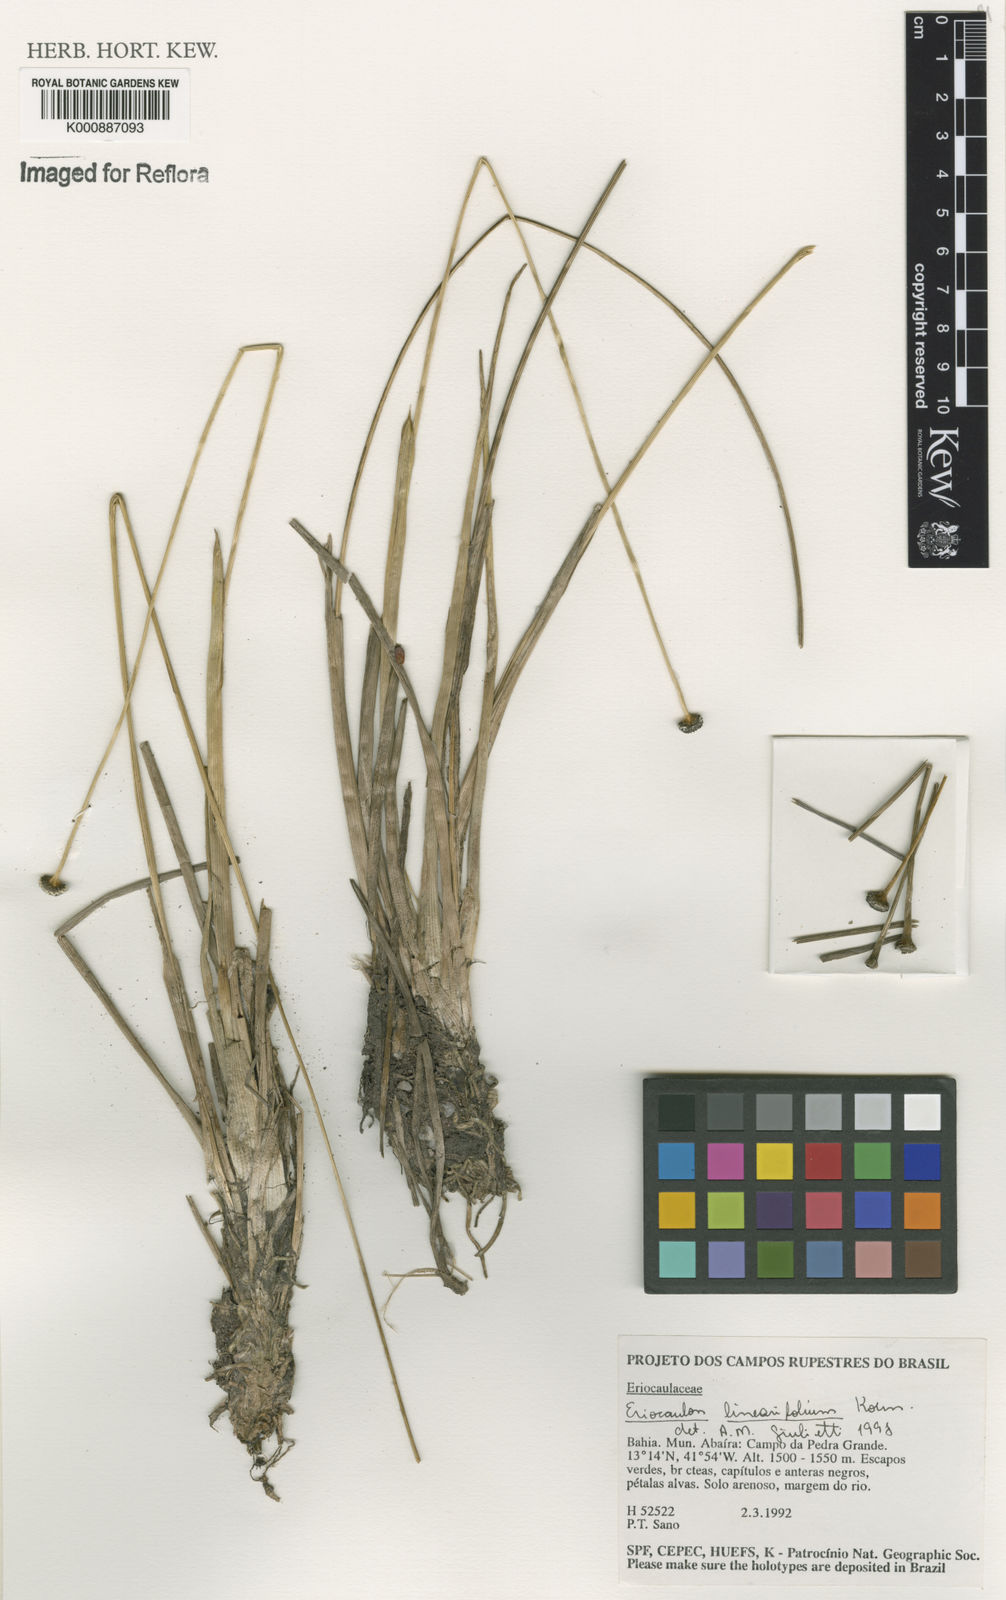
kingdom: Plantae
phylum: Tracheophyta
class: Liliopsida
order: Poales
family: Eriocaulaceae
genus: Eriocaulon
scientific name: Eriocaulon
